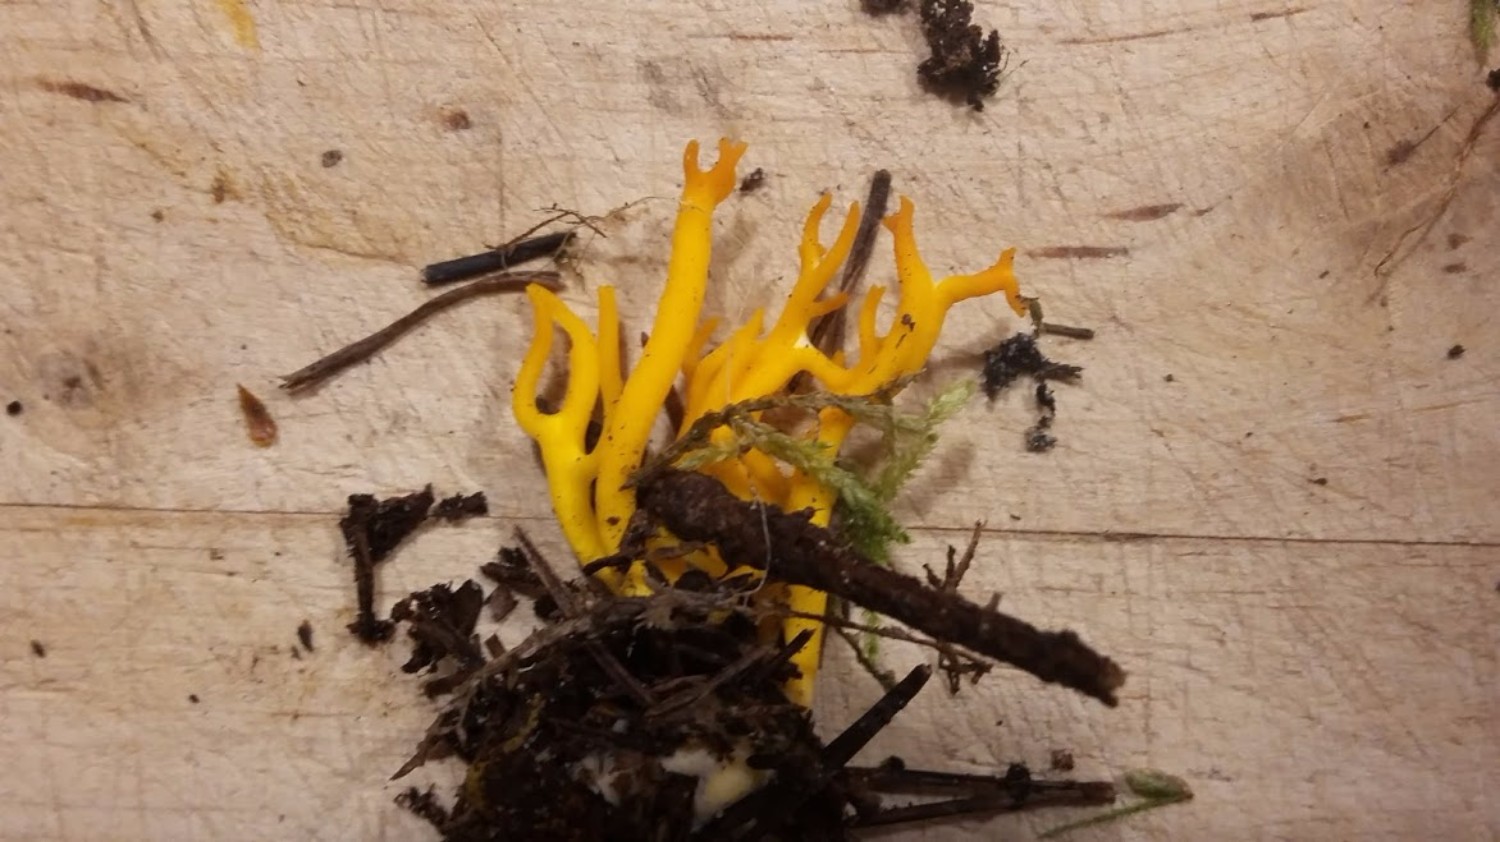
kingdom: Fungi
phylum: Basidiomycota
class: Dacrymycetes
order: Dacrymycetales
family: Dacrymycetaceae
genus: Calocera
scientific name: Calocera viscosa
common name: almindelig guldgaffel
